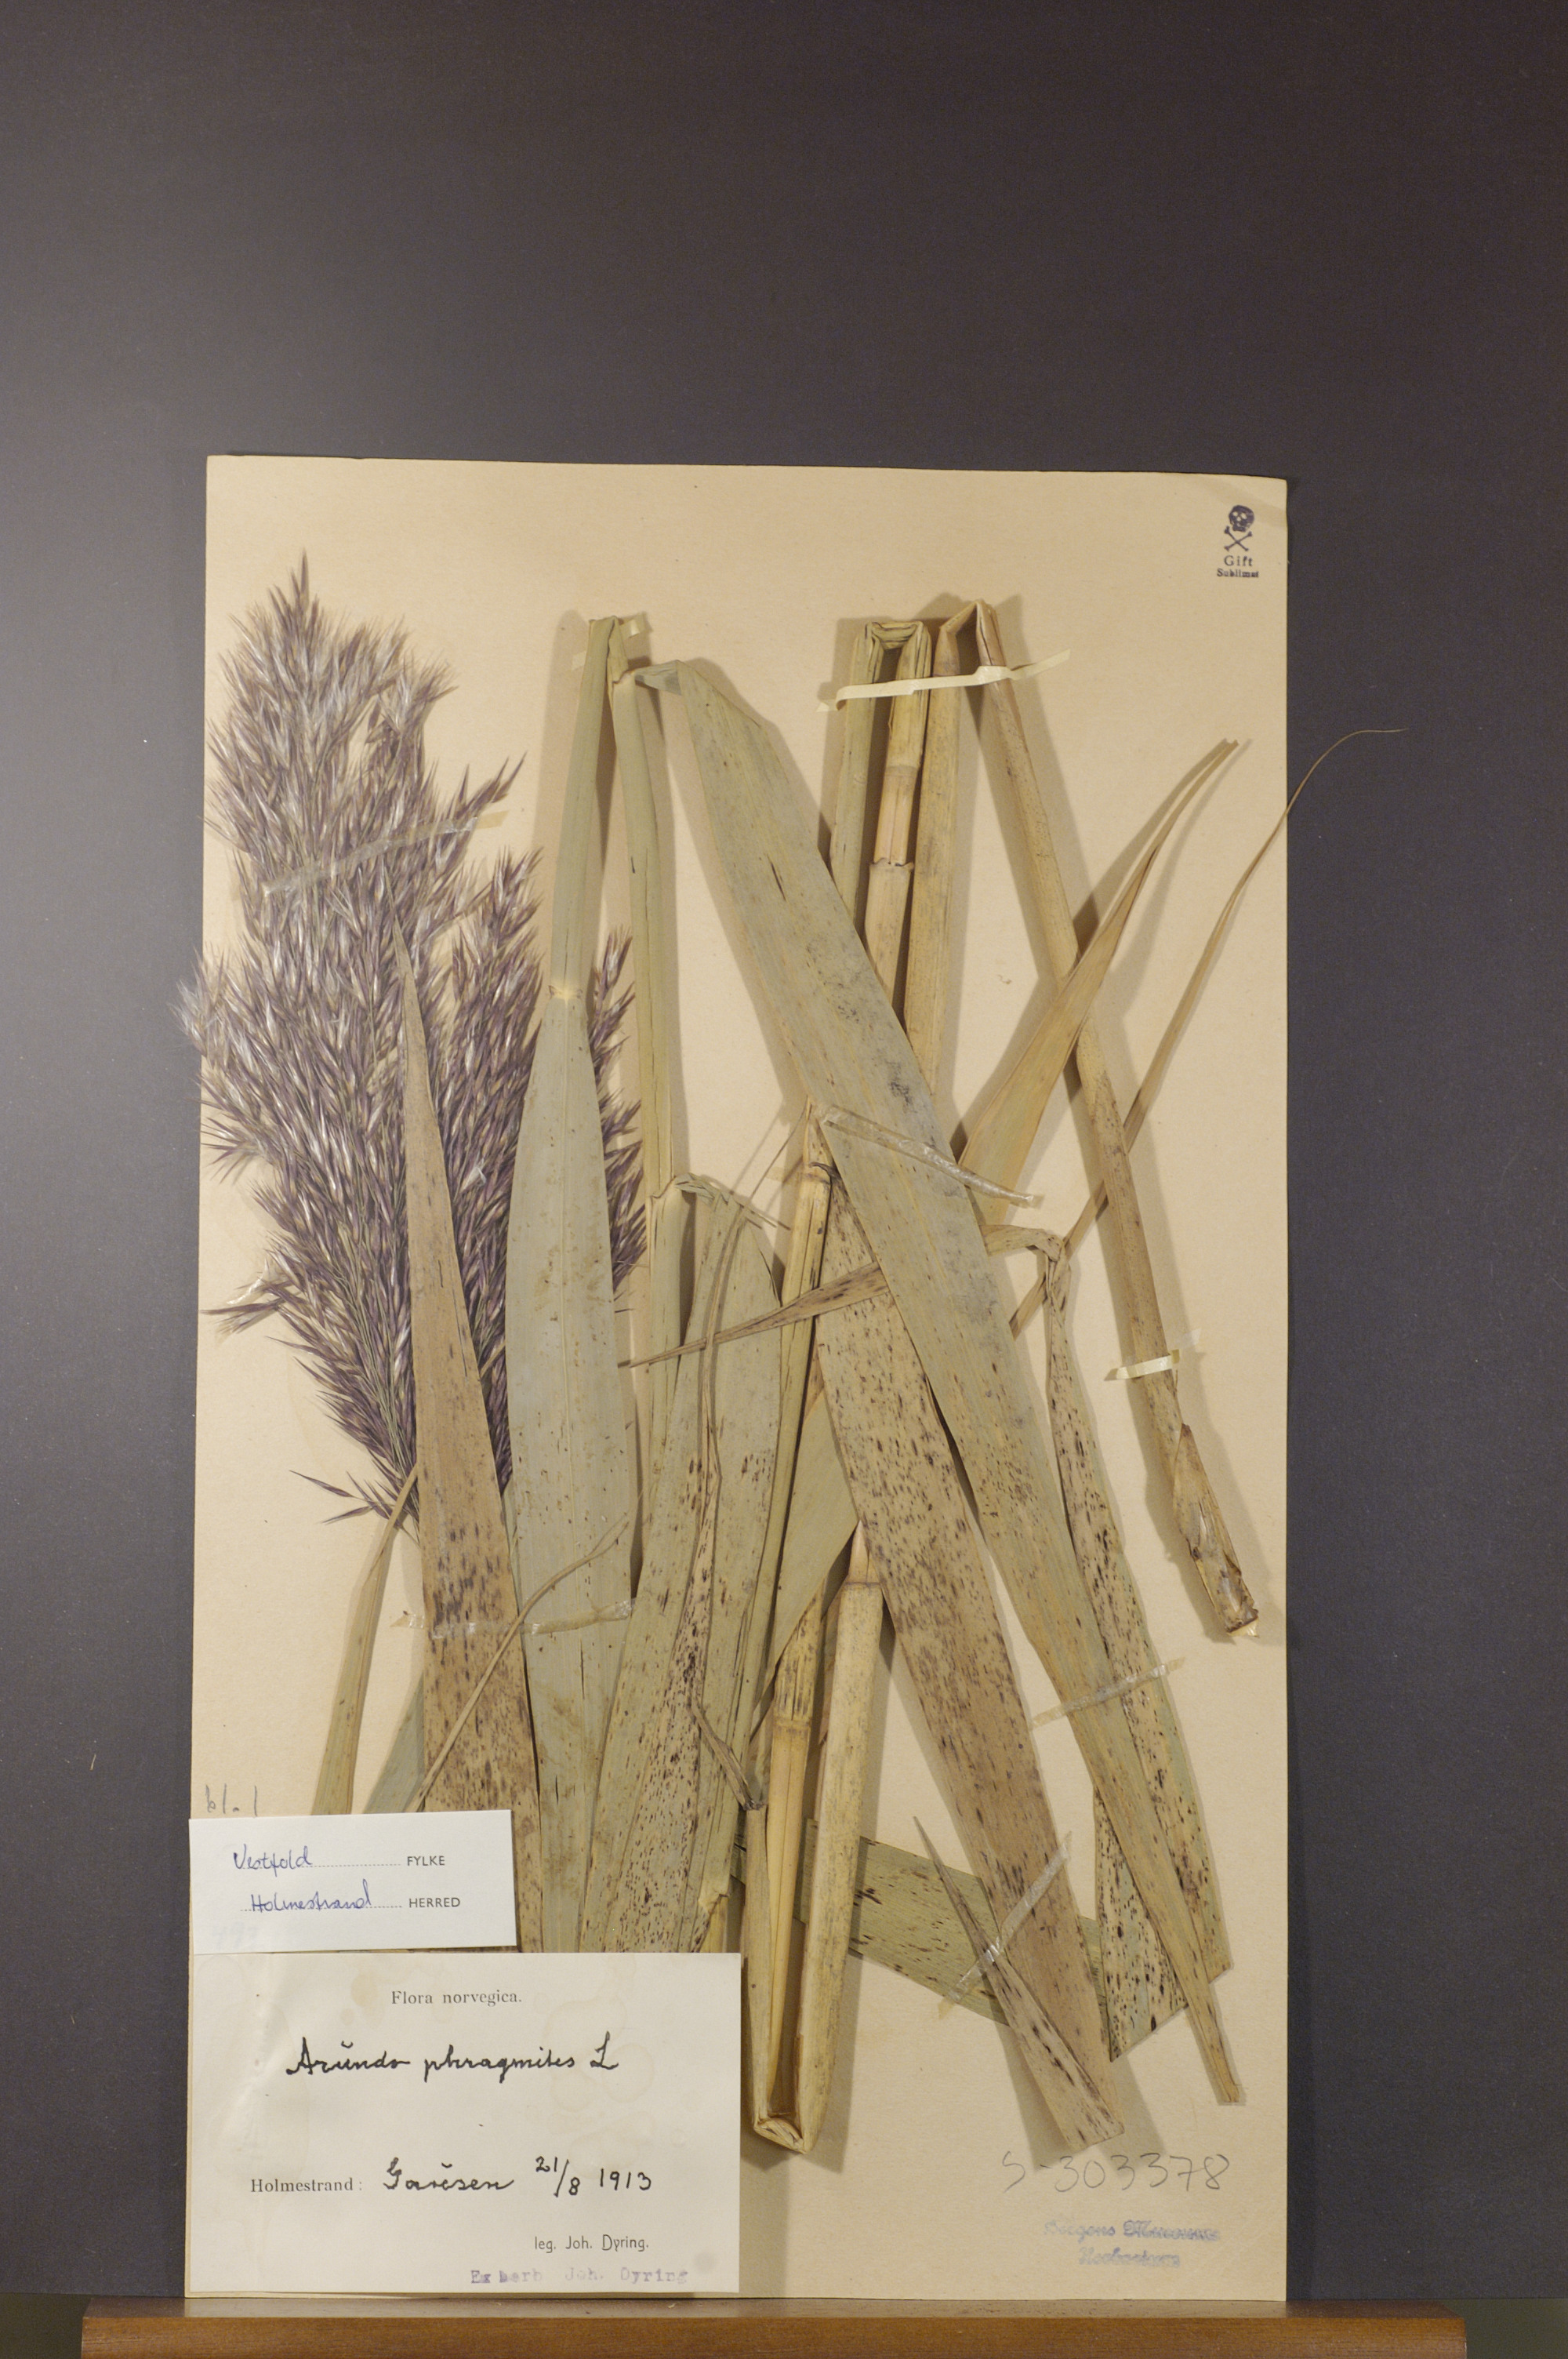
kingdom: Plantae
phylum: Tracheophyta
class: Liliopsida
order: Poales
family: Poaceae
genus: Phragmites
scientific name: Phragmites australis
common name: Common reed
